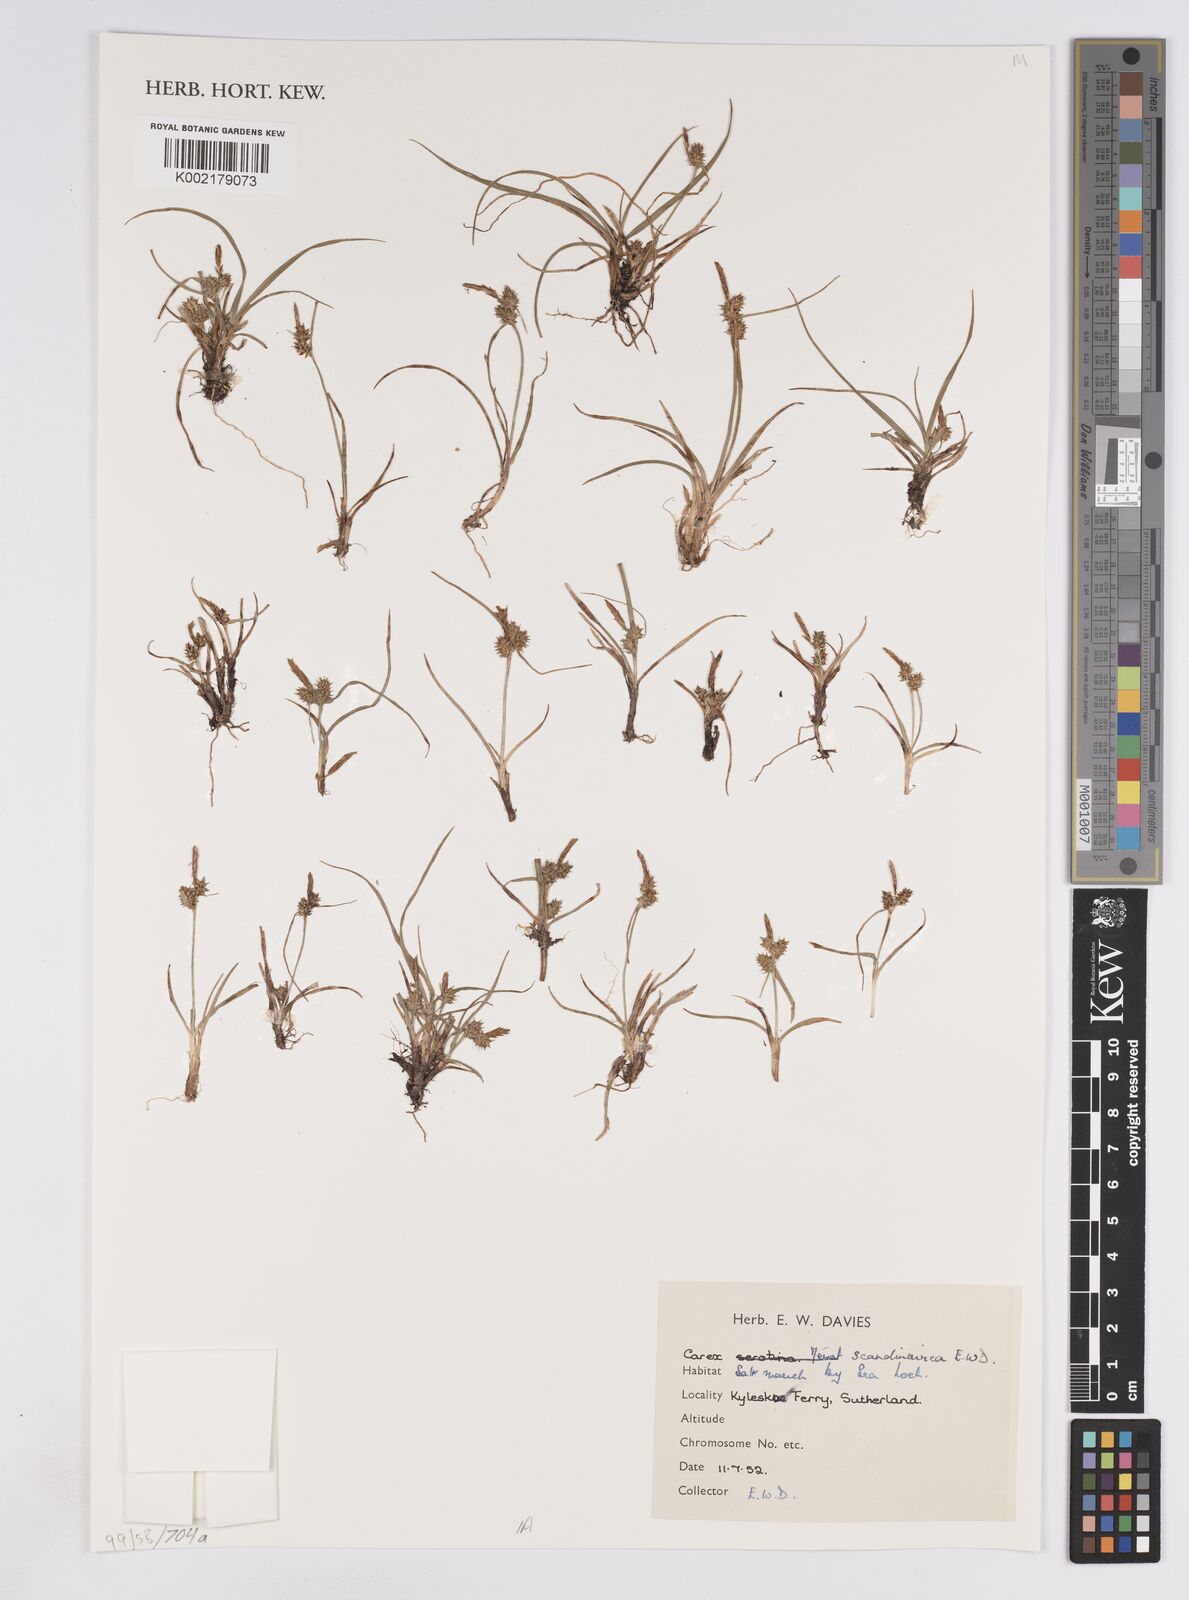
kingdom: Plantae
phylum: Tracheophyta
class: Liliopsida
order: Poales
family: Cyperaceae
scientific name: Cyperaceae
